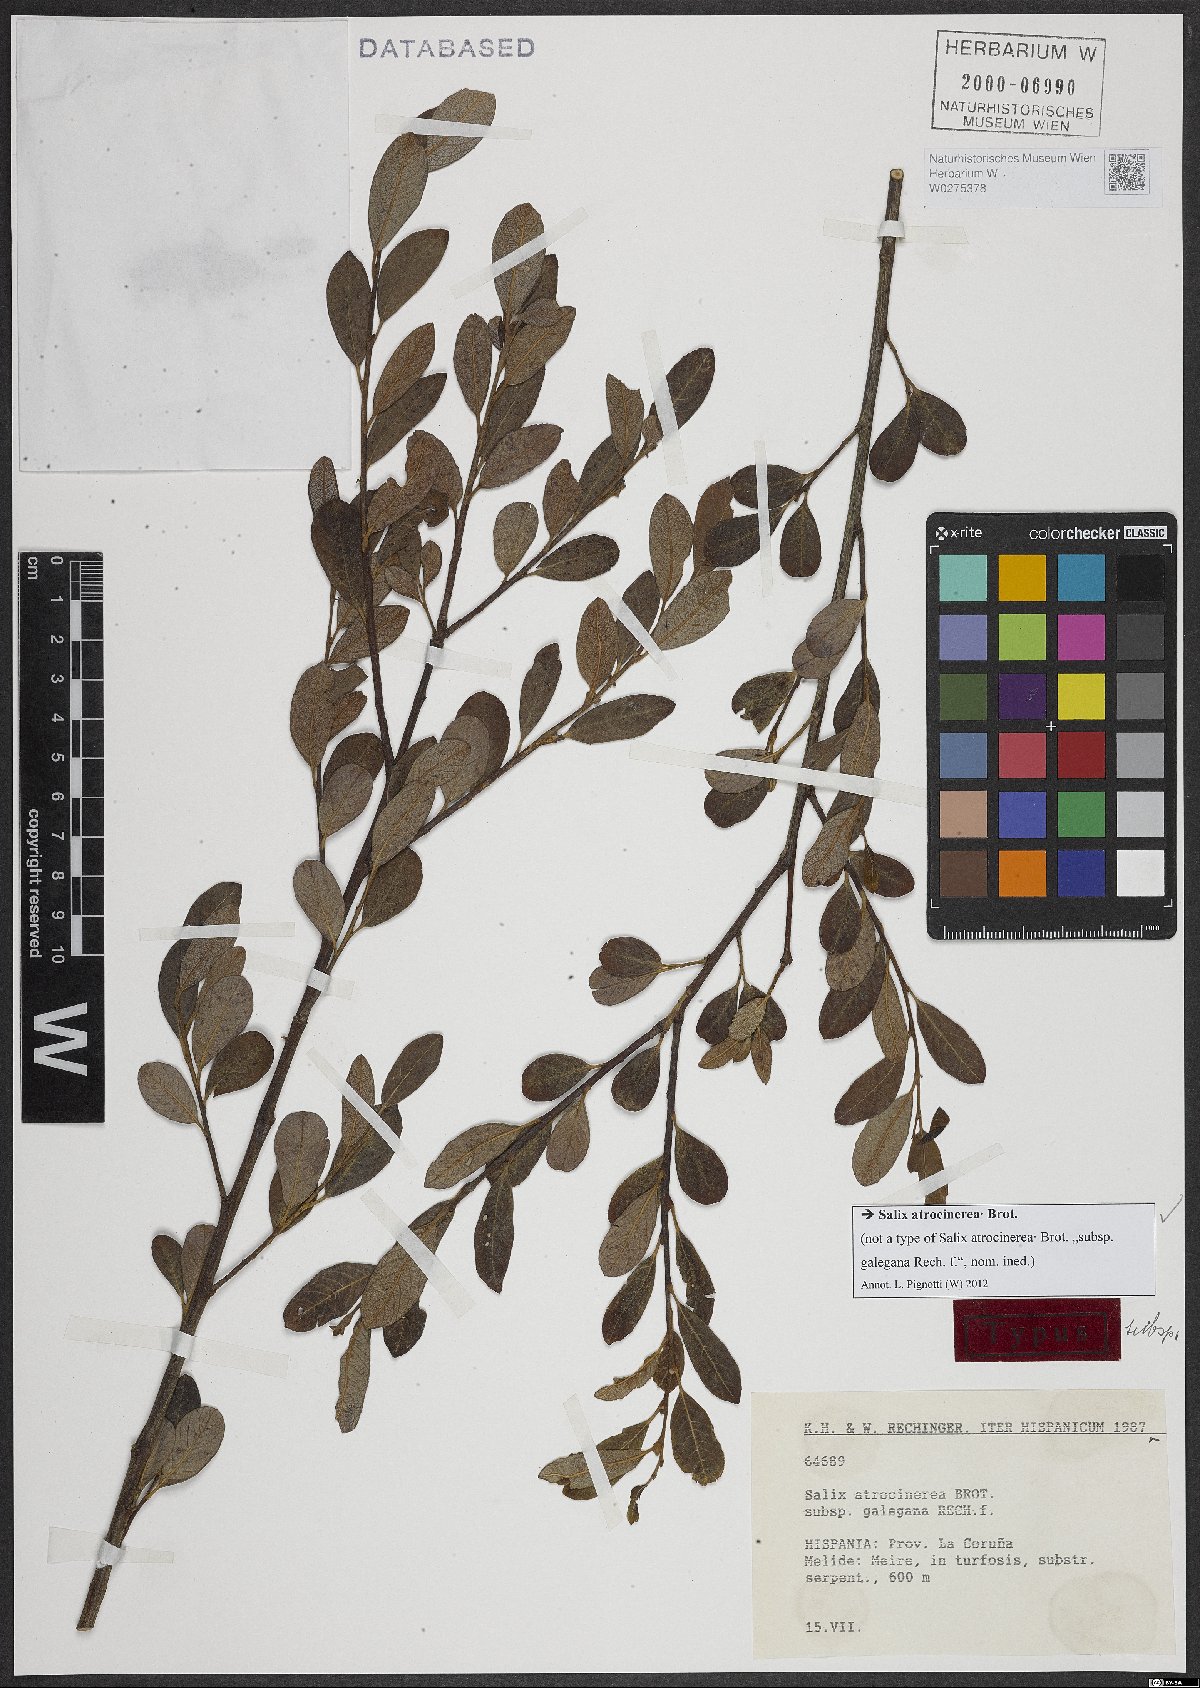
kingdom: Plantae
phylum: Tracheophyta
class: Magnoliopsida
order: Malpighiales
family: Salicaceae
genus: Salix
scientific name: Salix atrocinerea
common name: Rusty willow
